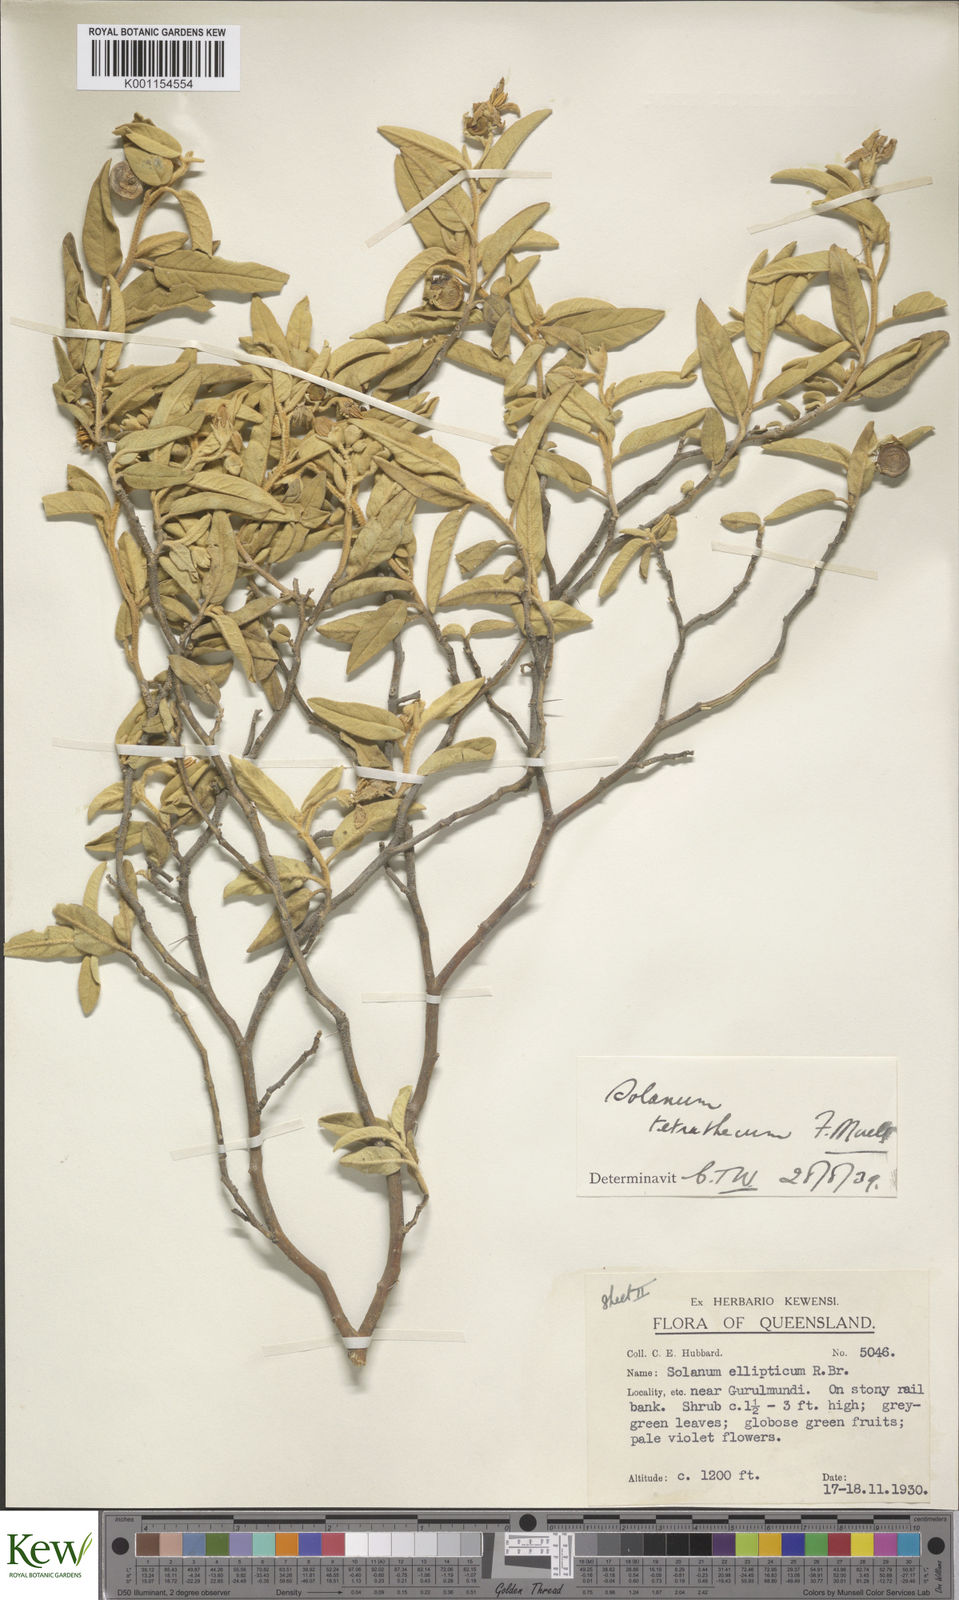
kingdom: Plantae
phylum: Tracheophyta
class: Magnoliopsida
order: Solanales
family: Solanaceae
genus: Solanum
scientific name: Solanum tetrathecum
